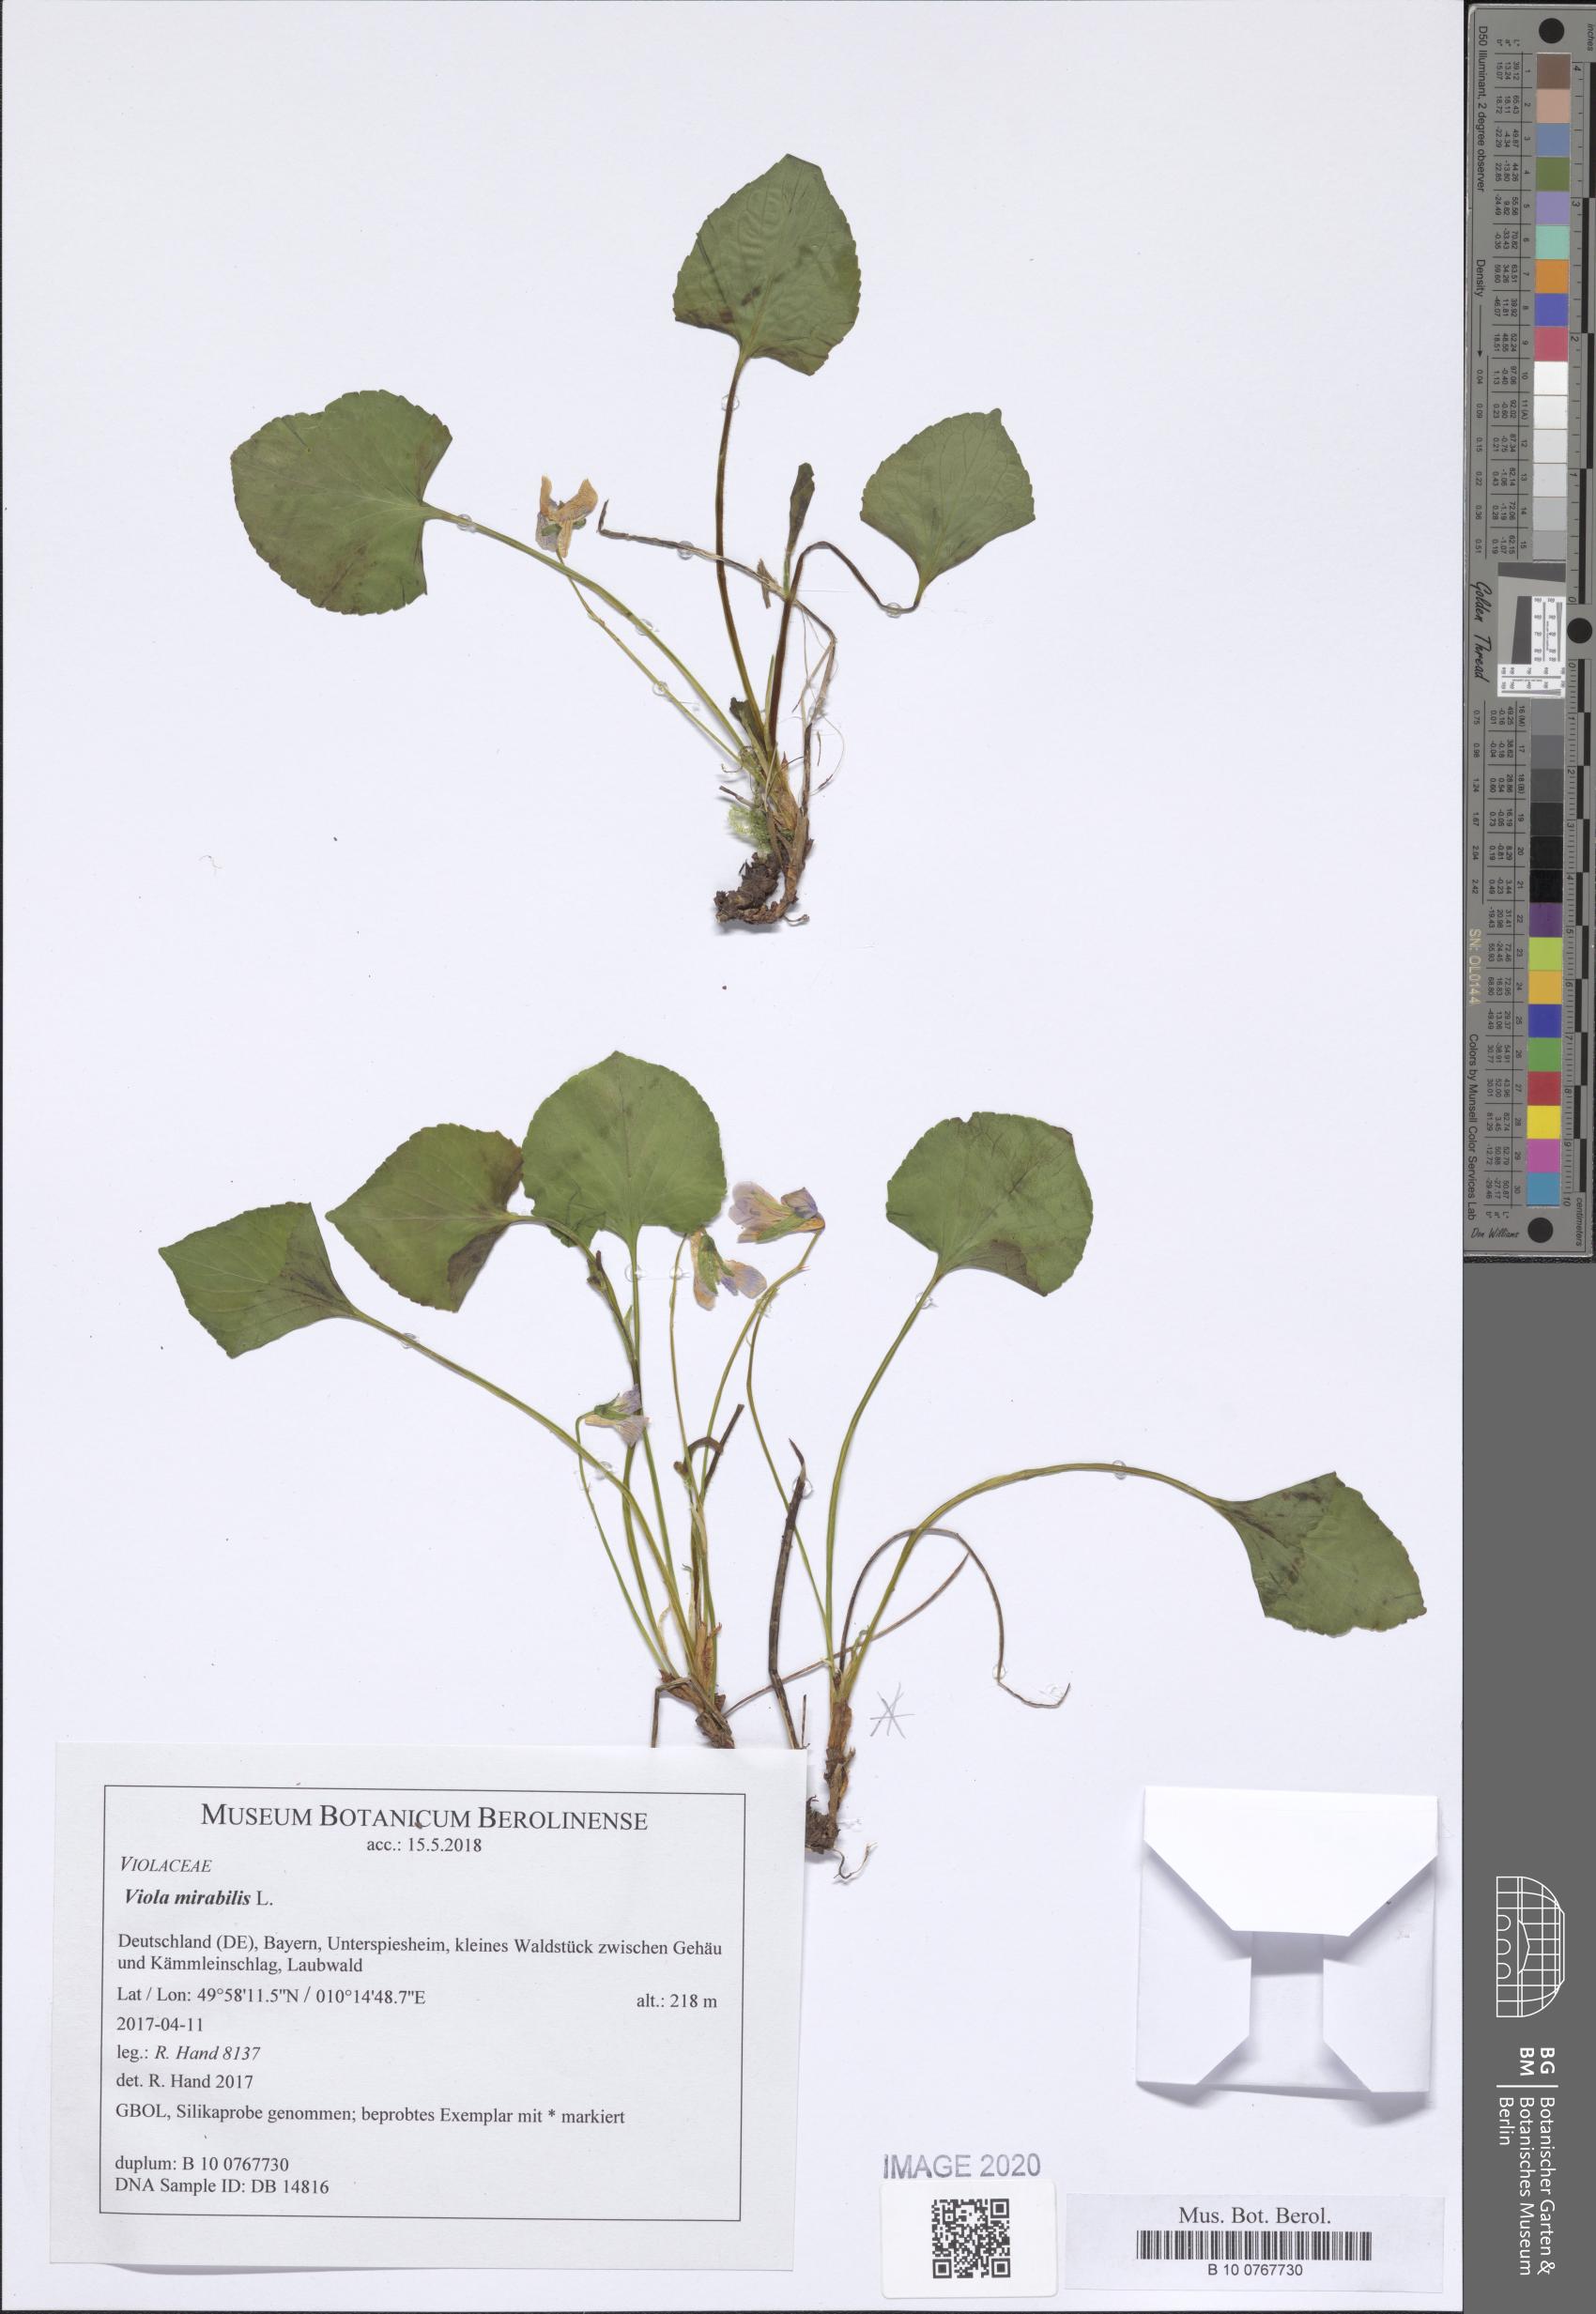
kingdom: Plantae
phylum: Tracheophyta
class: Magnoliopsida
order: Malpighiales
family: Violaceae
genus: Viola
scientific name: Viola mirabilis
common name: Wonder violet
